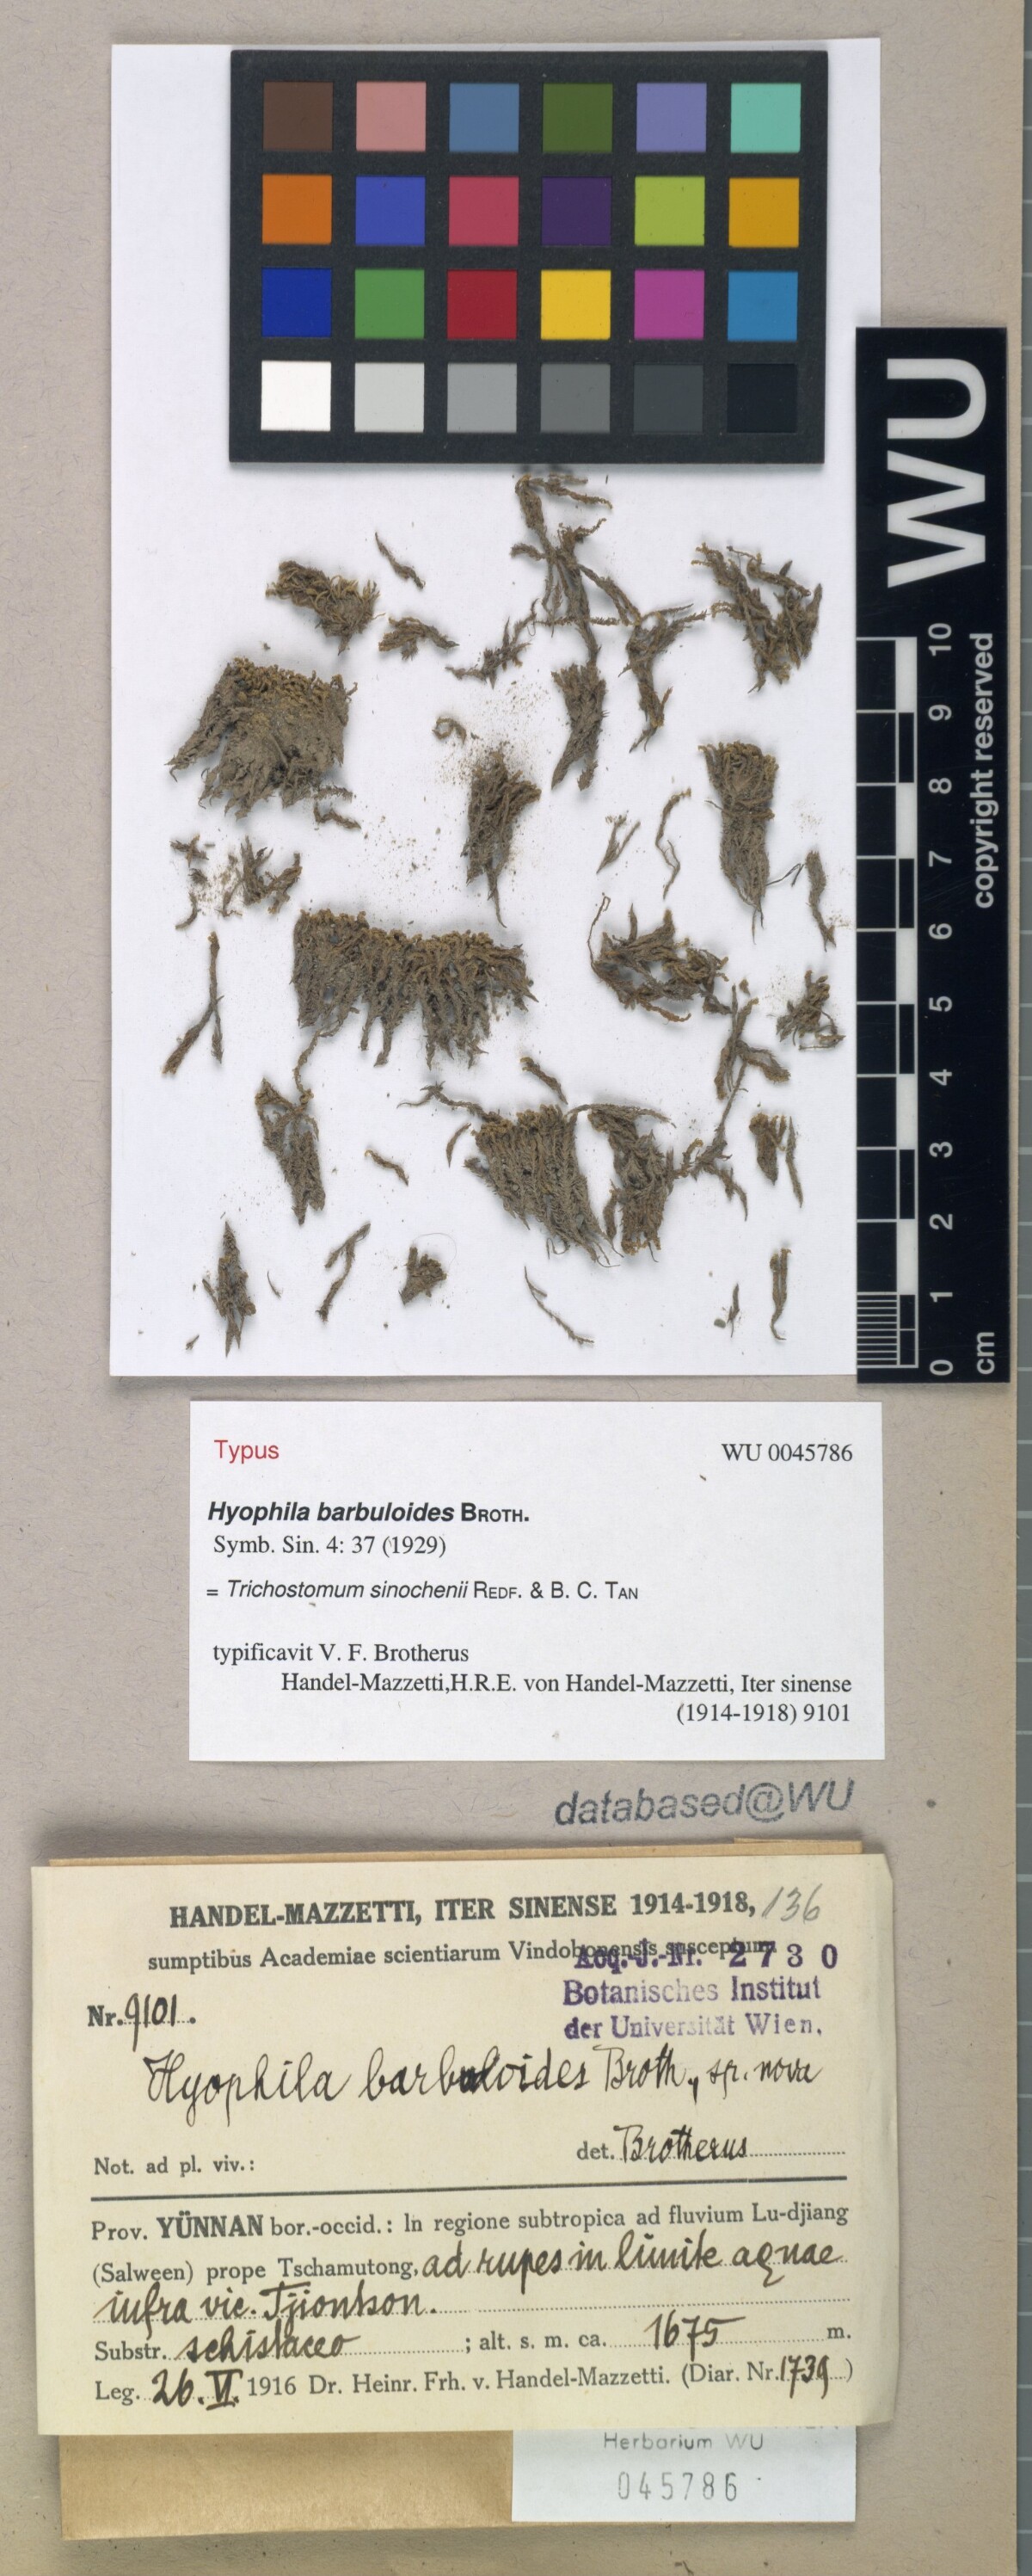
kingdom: Plantae
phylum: Bryophyta
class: Bryopsida
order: Pottiales
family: Pottiaceae
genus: Trichostomum
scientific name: Trichostomum sinochenii
